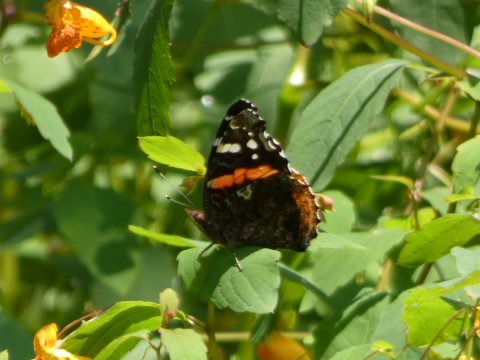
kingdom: Animalia
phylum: Arthropoda
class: Insecta
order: Lepidoptera
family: Nymphalidae
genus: Vanessa
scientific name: Vanessa atalanta
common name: Red Admiral
